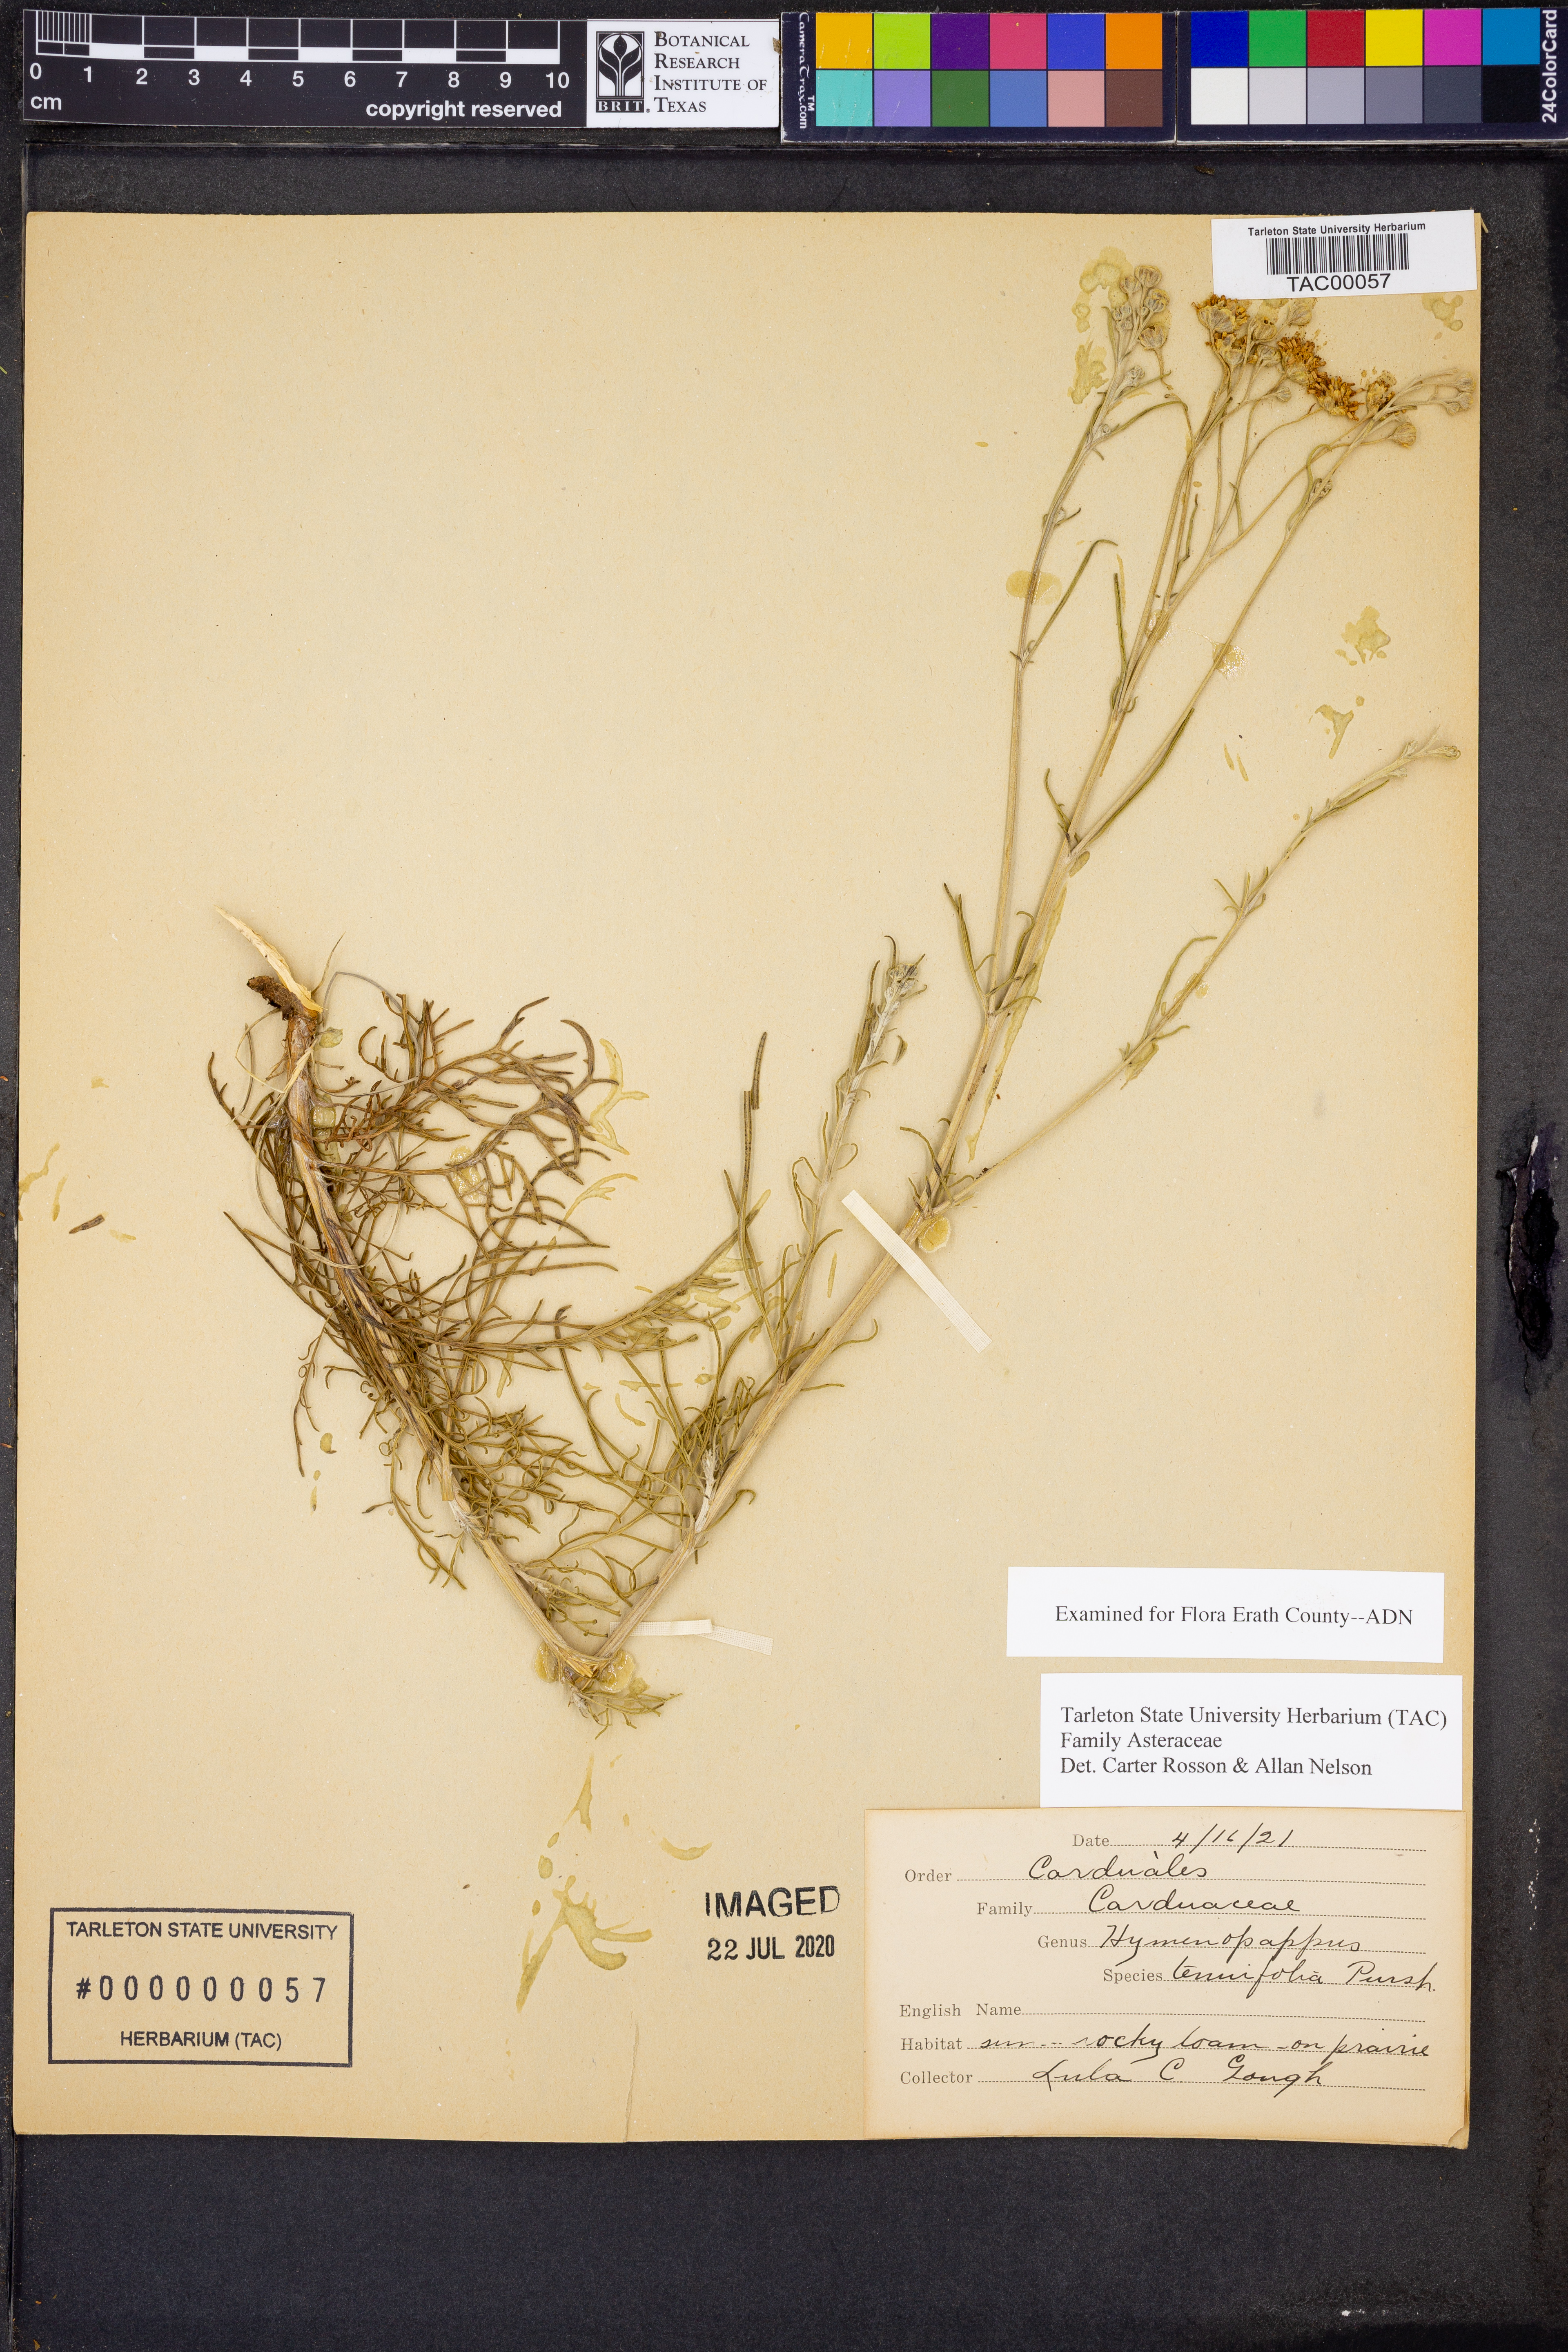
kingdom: Plantae
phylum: Tracheophyta
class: Magnoliopsida
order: Asterales
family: Asteraceae
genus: Hymenopappus
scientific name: Hymenopappus tenuifolius
